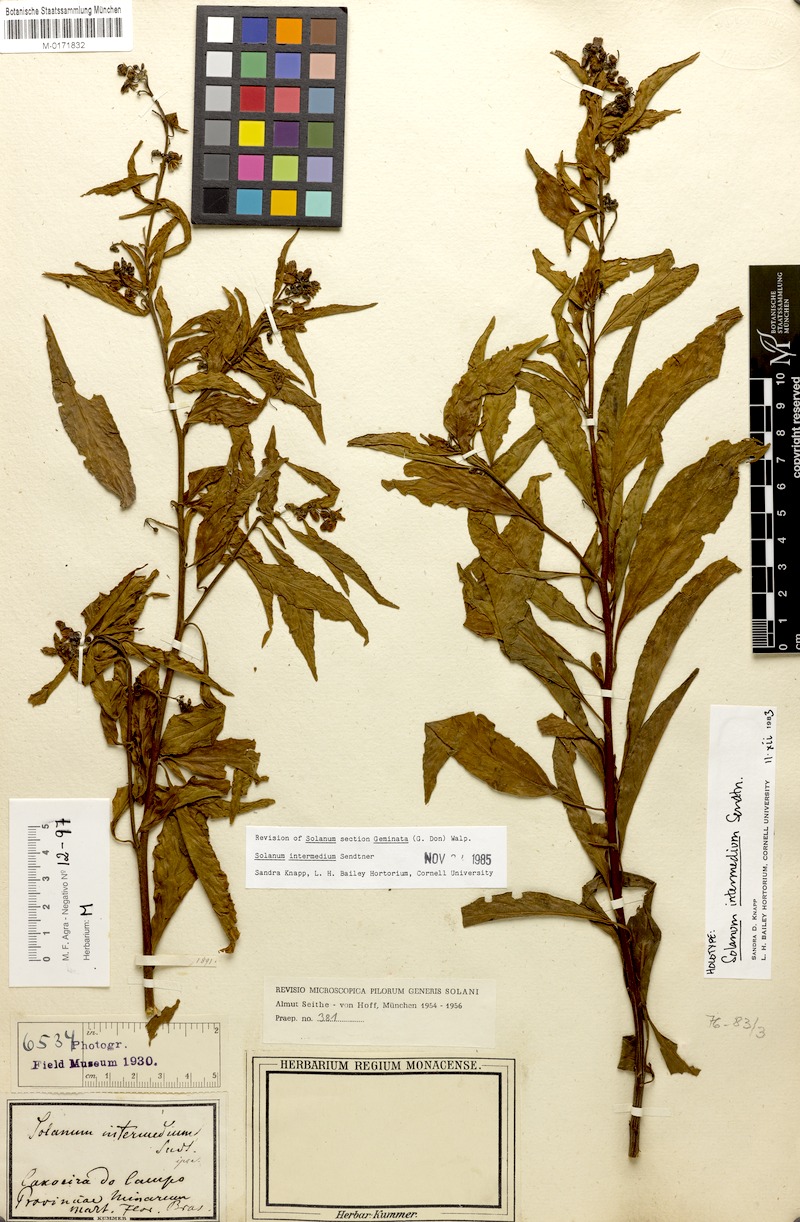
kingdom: Plantae
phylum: Tracheophyta
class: Magnoliopsida
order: Solanales
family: Solanaceae
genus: Solanum
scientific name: Solanum intermedium
